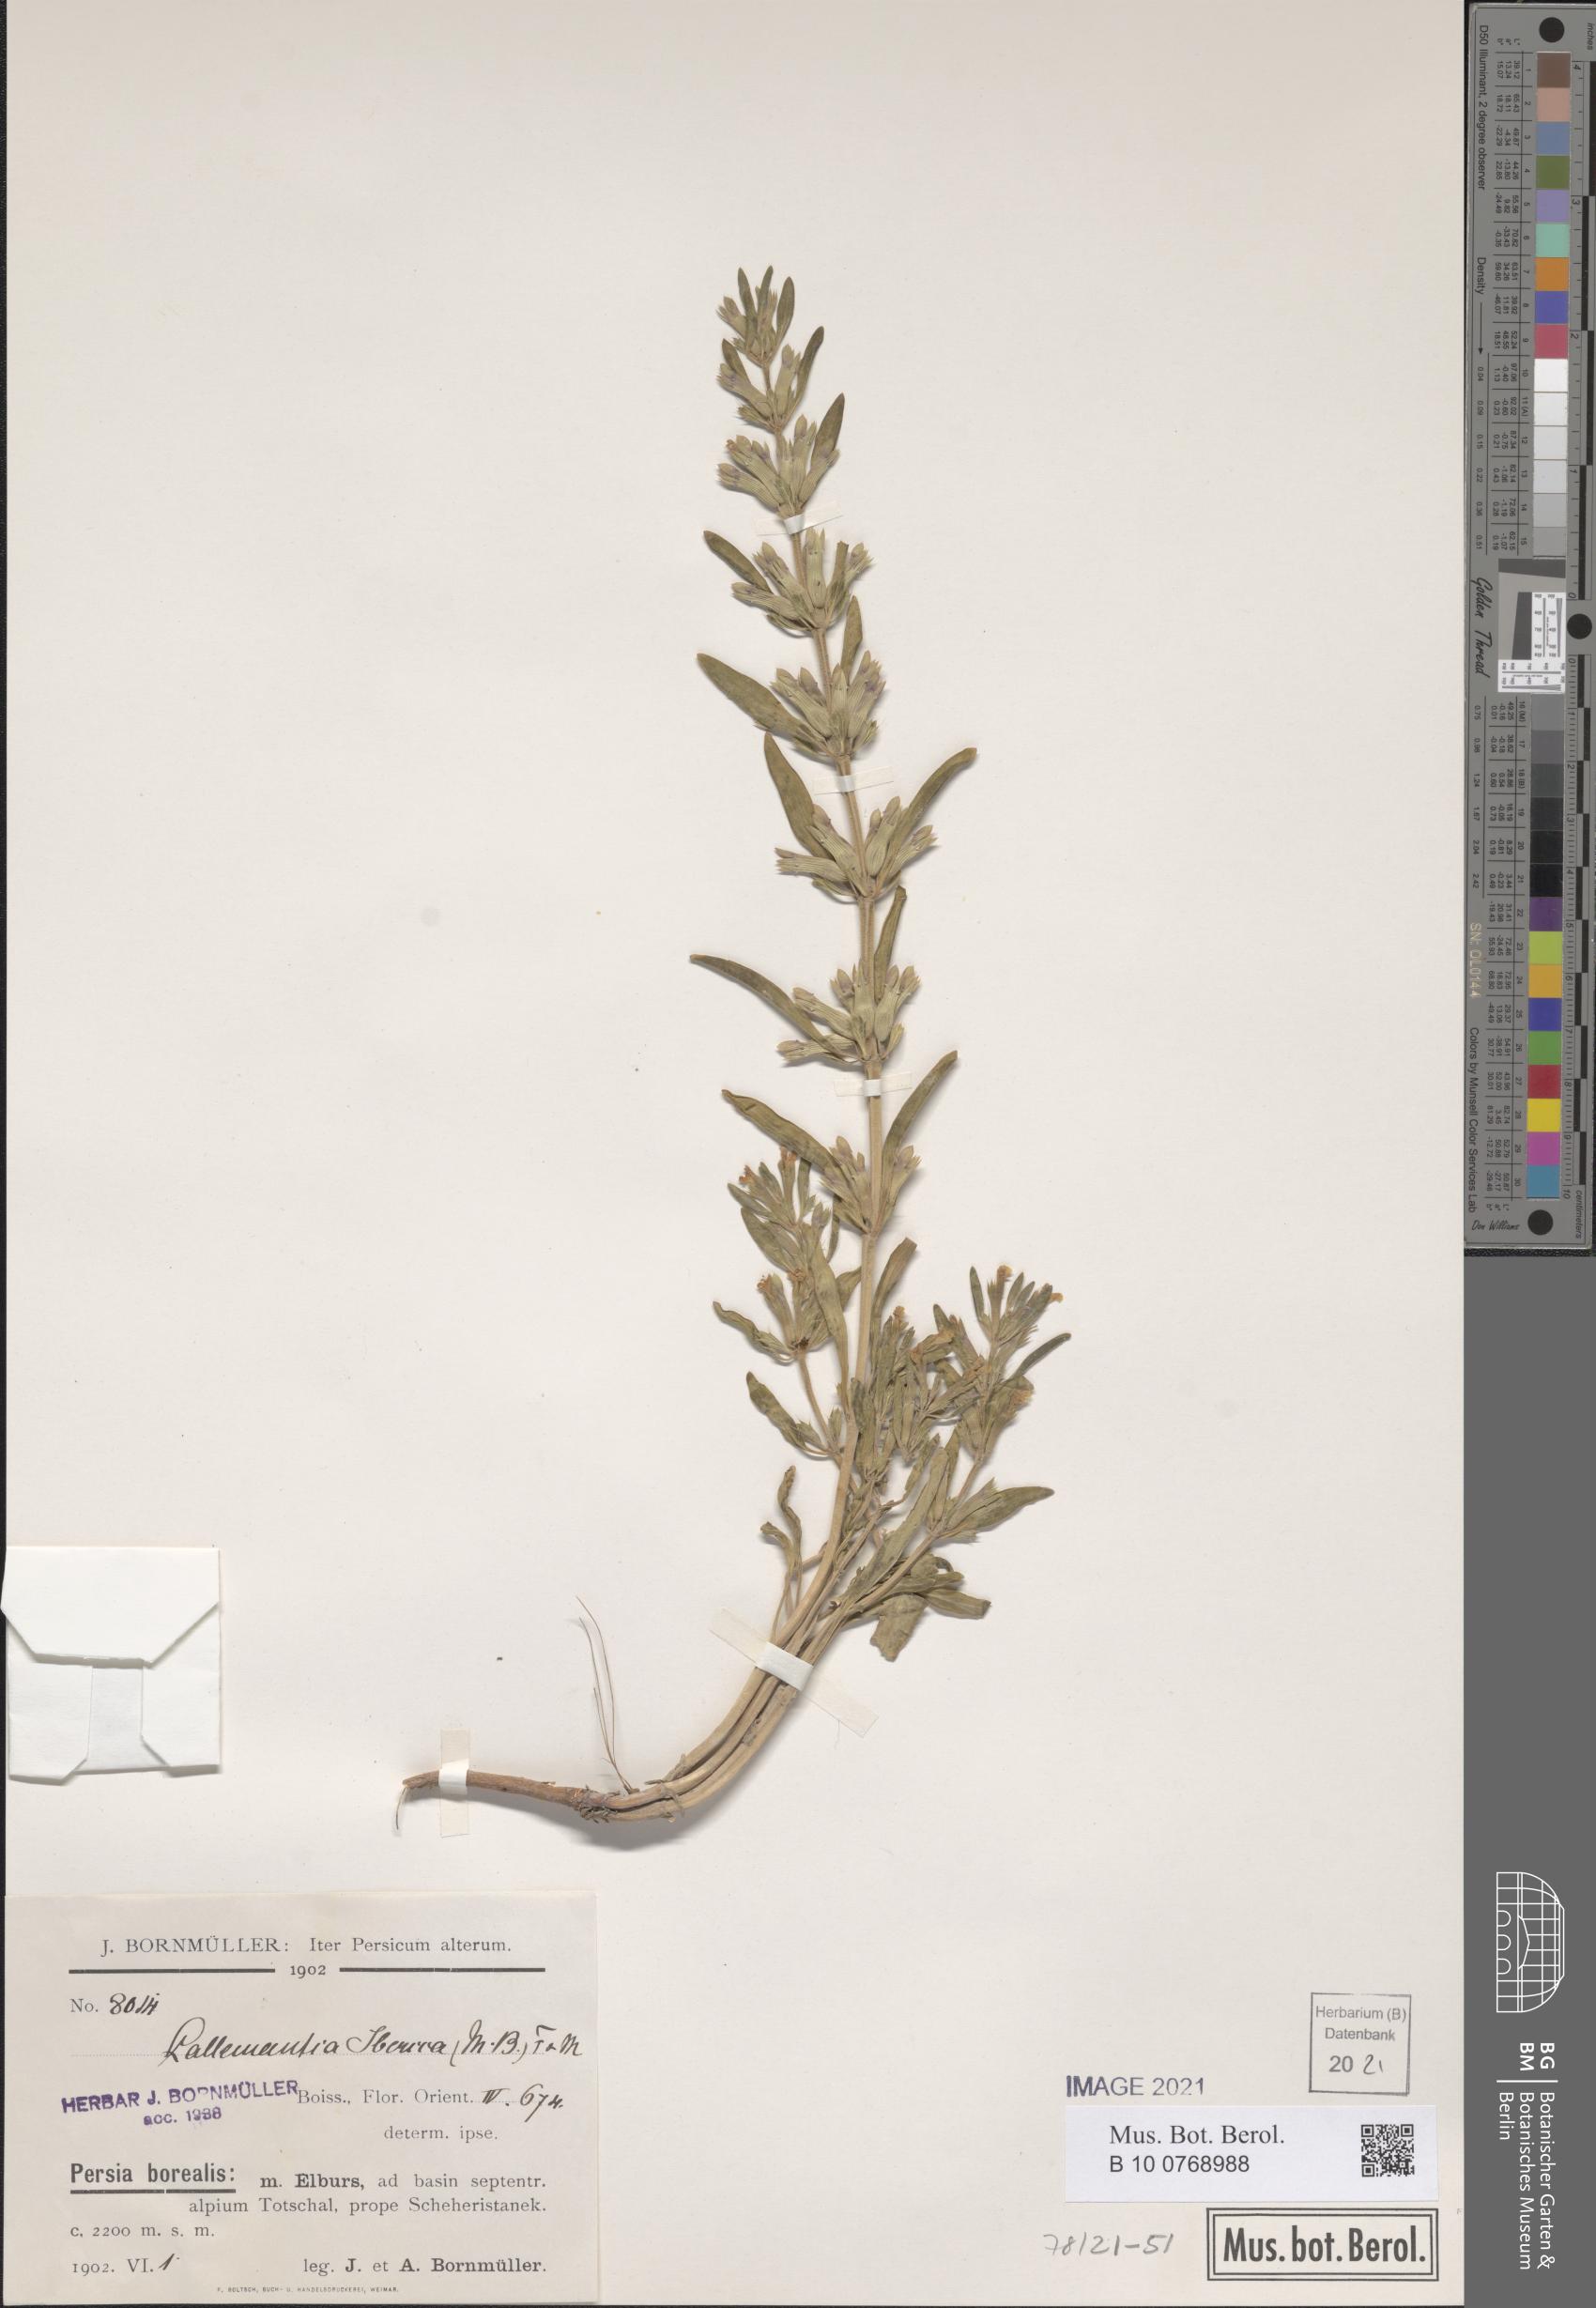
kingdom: Plantae
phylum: Tracheophyta
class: Magnoliopsida
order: Lamiales
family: Lamiaceae
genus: Lallemantia
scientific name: Lallemantia iberica
